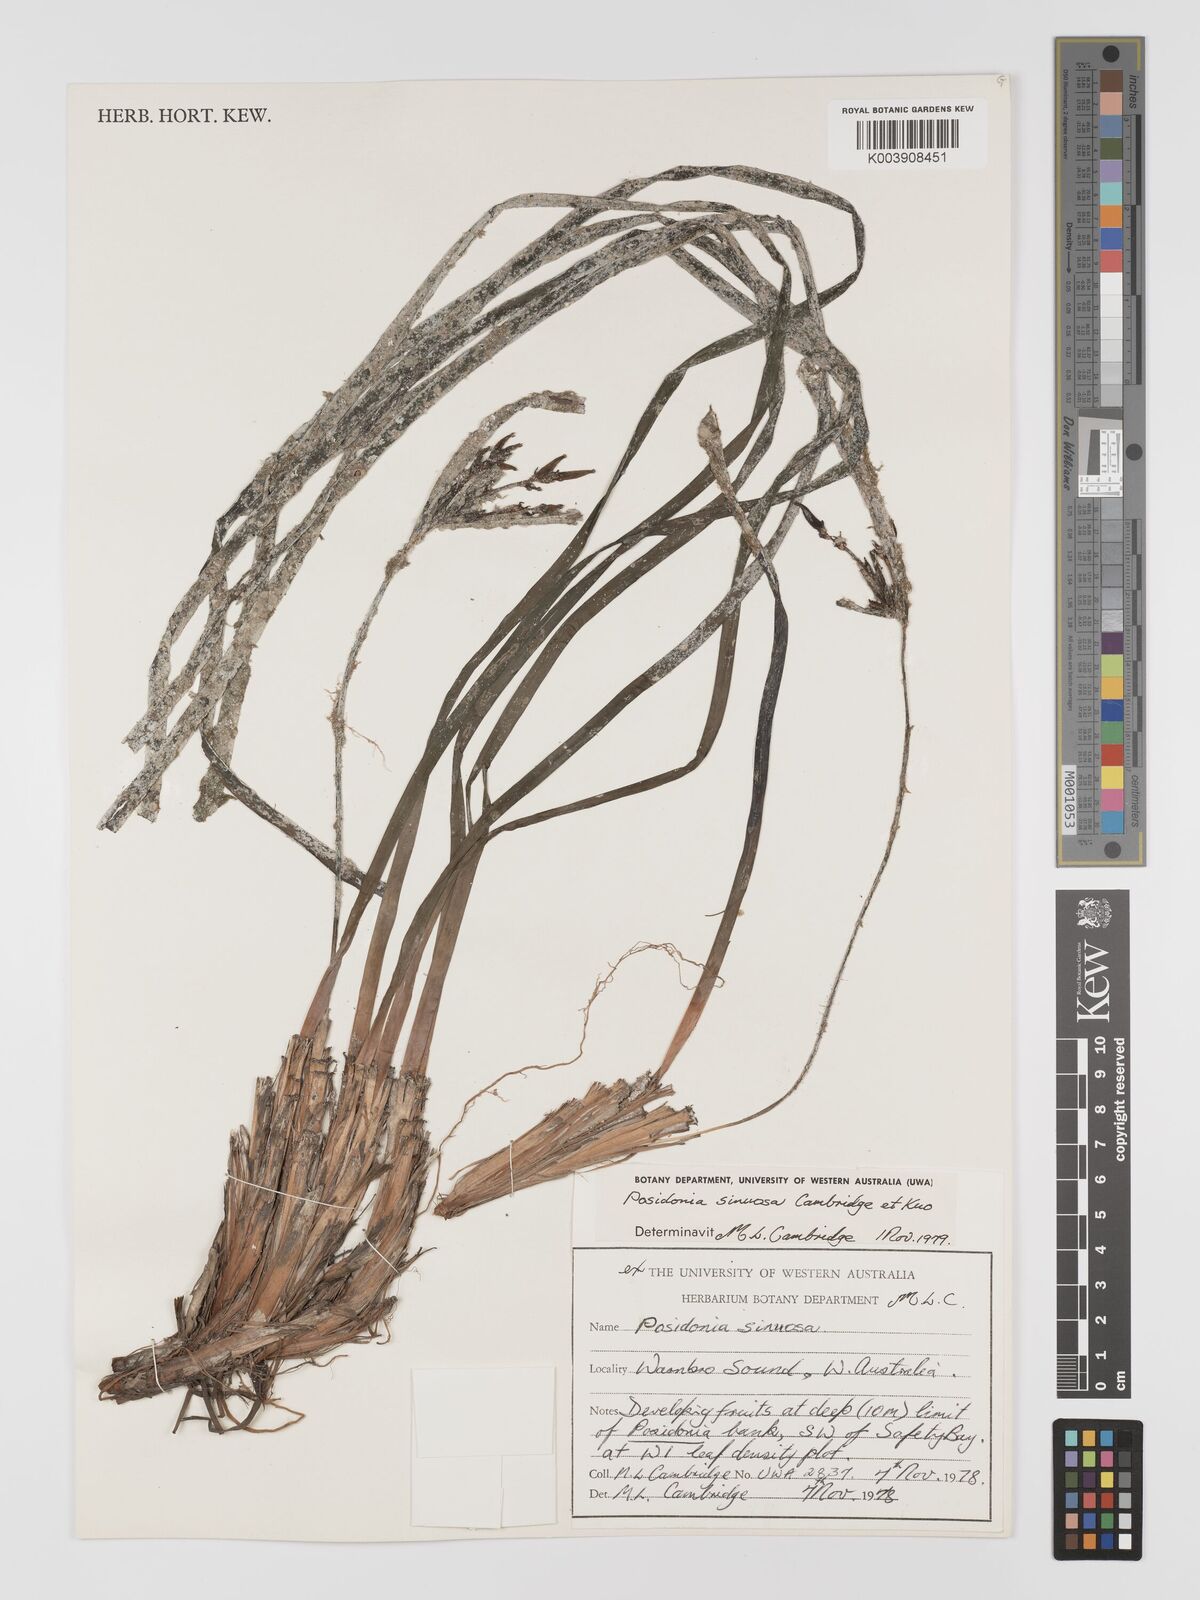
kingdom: Plantae
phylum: Tracheophyta
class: Liliopsida
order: Alismatales
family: Posidoniaceae
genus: Posidonia
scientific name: Posidonia sinuosa
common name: Species code: pn
